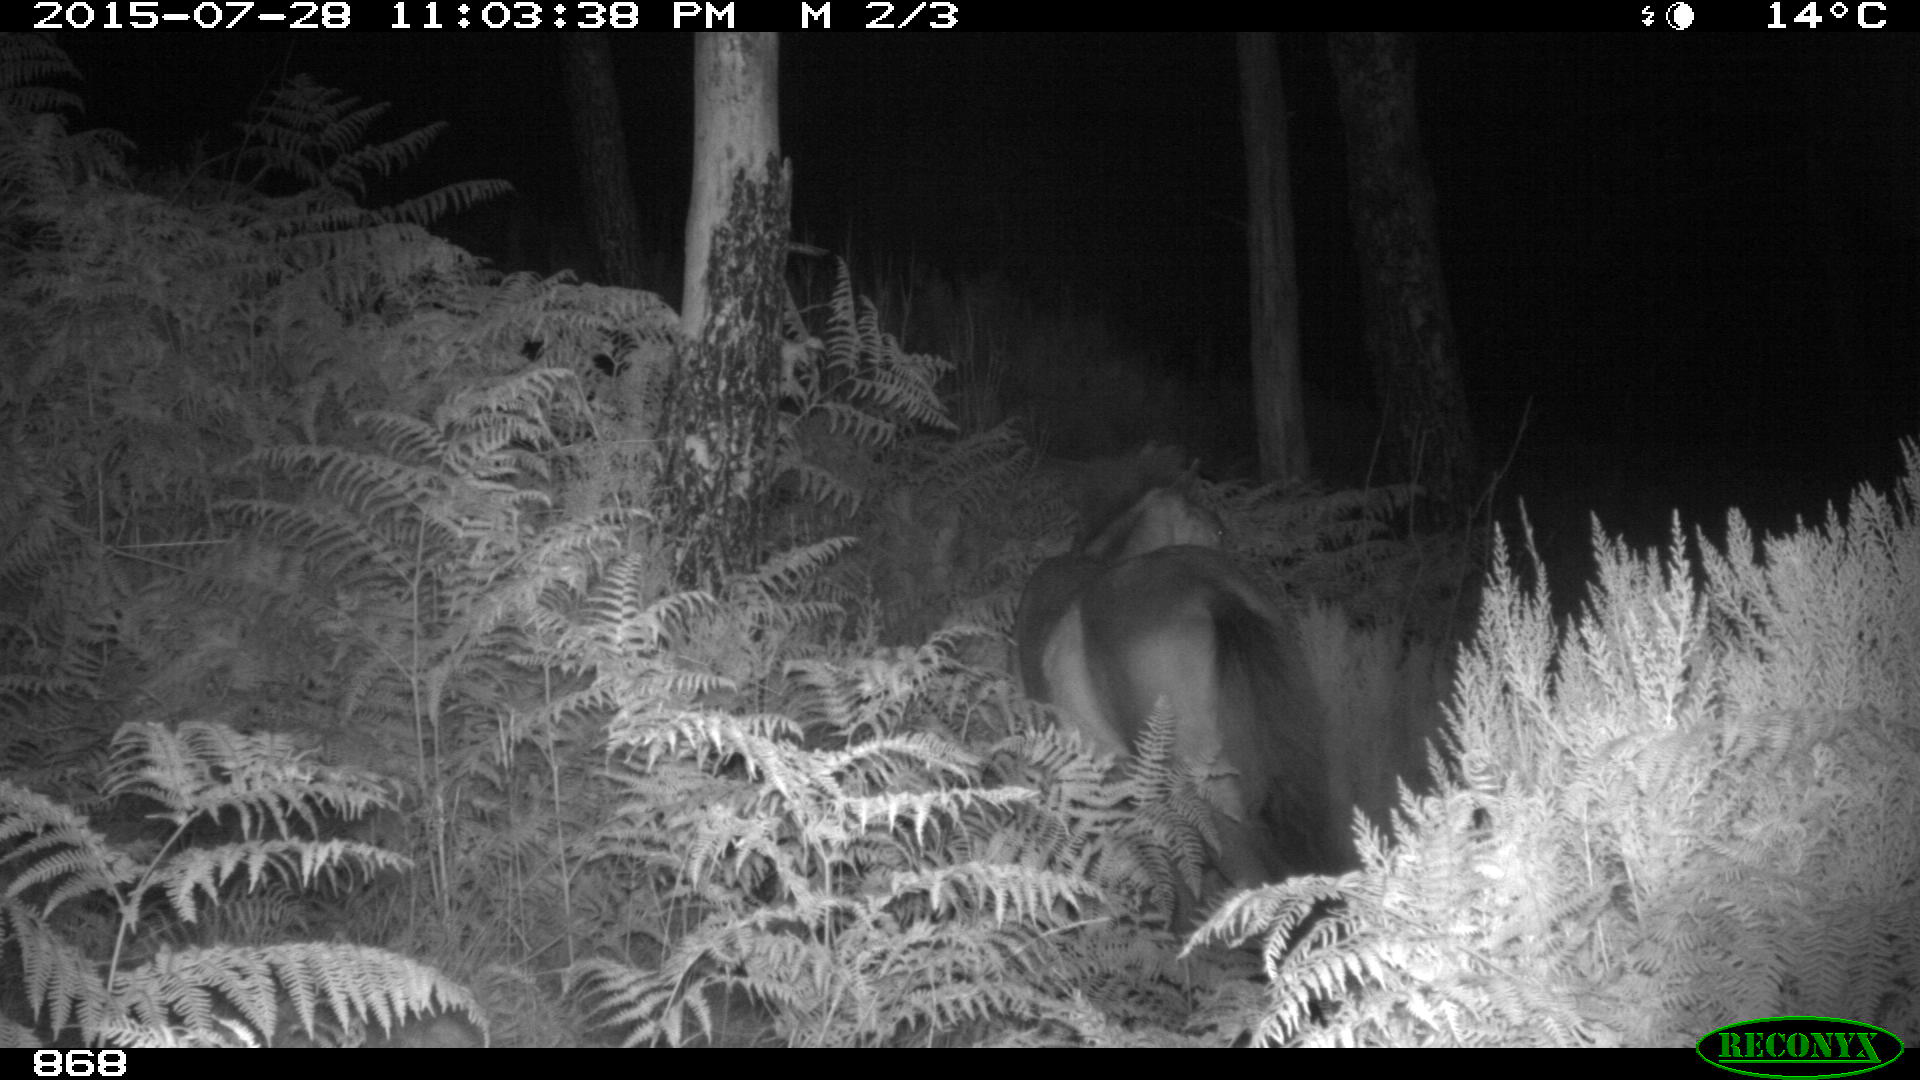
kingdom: Animalia
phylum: Chordata
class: Mammalia
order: Perissodactyla
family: Equidae
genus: Equus
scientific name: Equus caballus
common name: Horse
